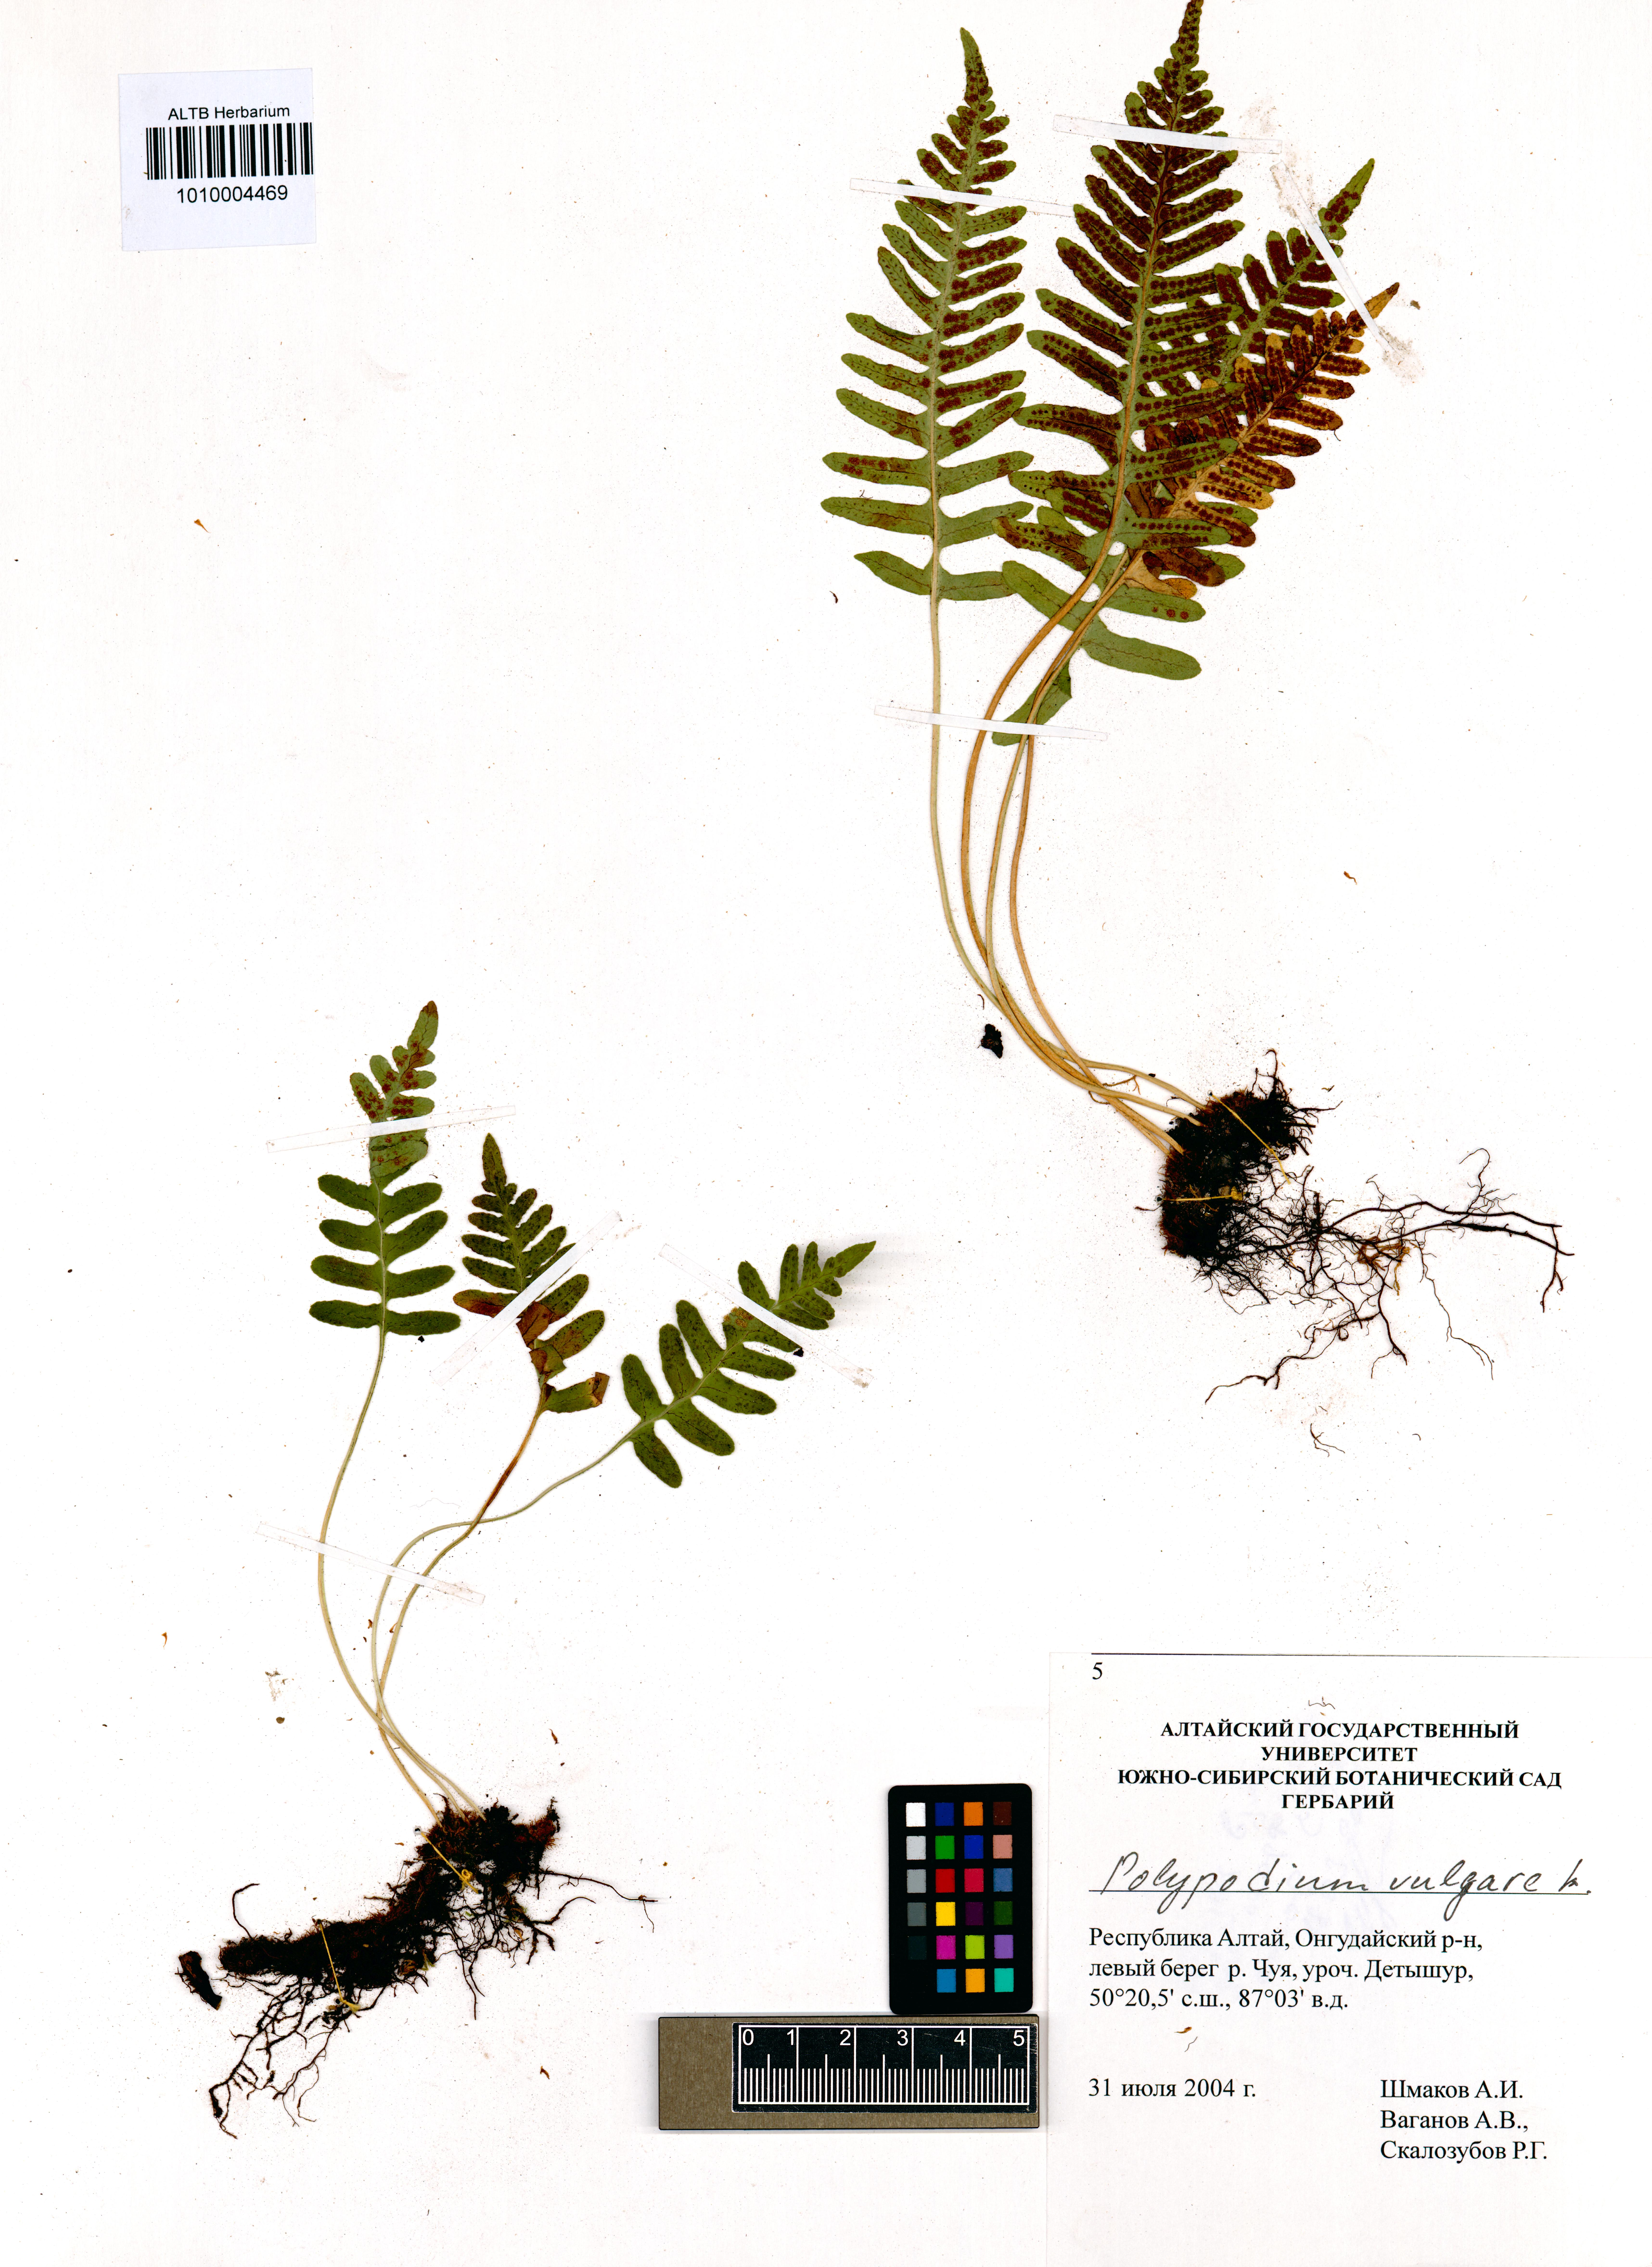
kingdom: Plantae
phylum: Tracheophyta
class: Polypodiopsida
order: Polypodiales
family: Polypodiaceae
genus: Polypodium
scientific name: Polypodium vulgare
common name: Common polypody
